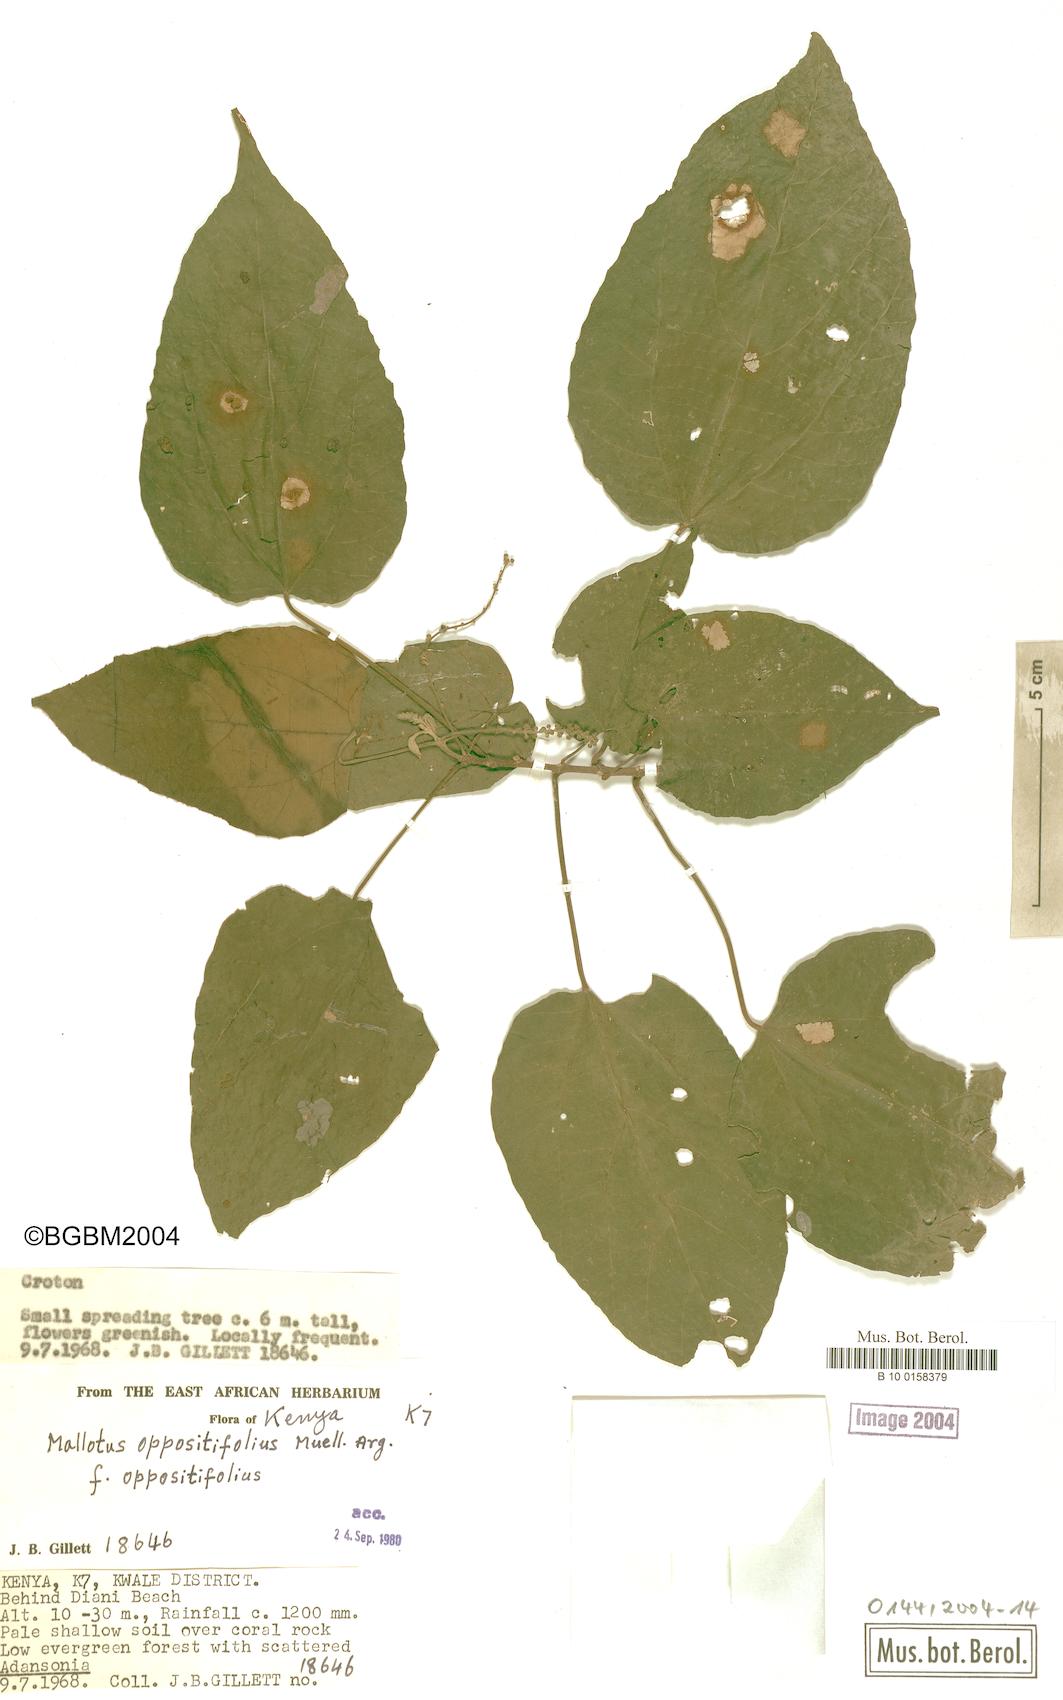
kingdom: Plantae
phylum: Tracheophyta
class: Magnoliopsida
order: Malpighiales
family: Euphorbiaceae
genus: Mallotus
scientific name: Mallotus oppositifolius
